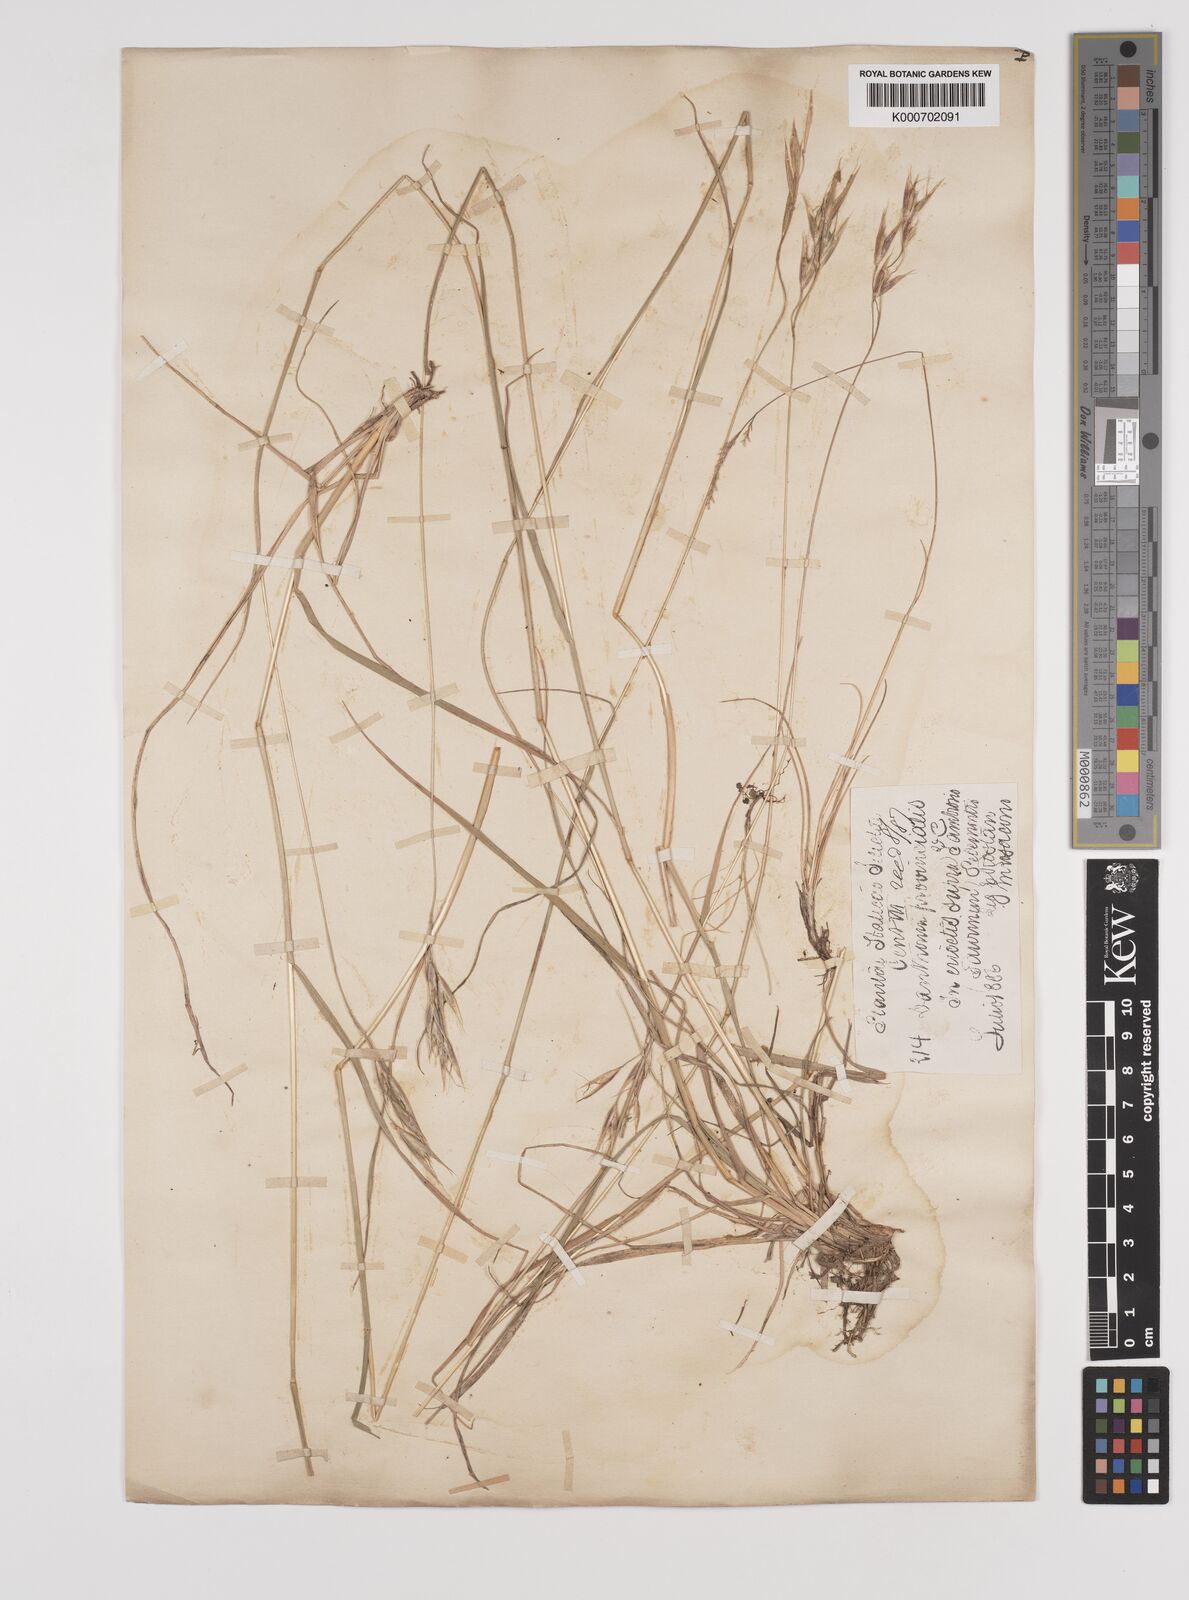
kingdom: Plantae
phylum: Tracheophyta
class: Liliopsida
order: Poales
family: Poaceae
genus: Danthonia
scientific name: Danthonia alpina
